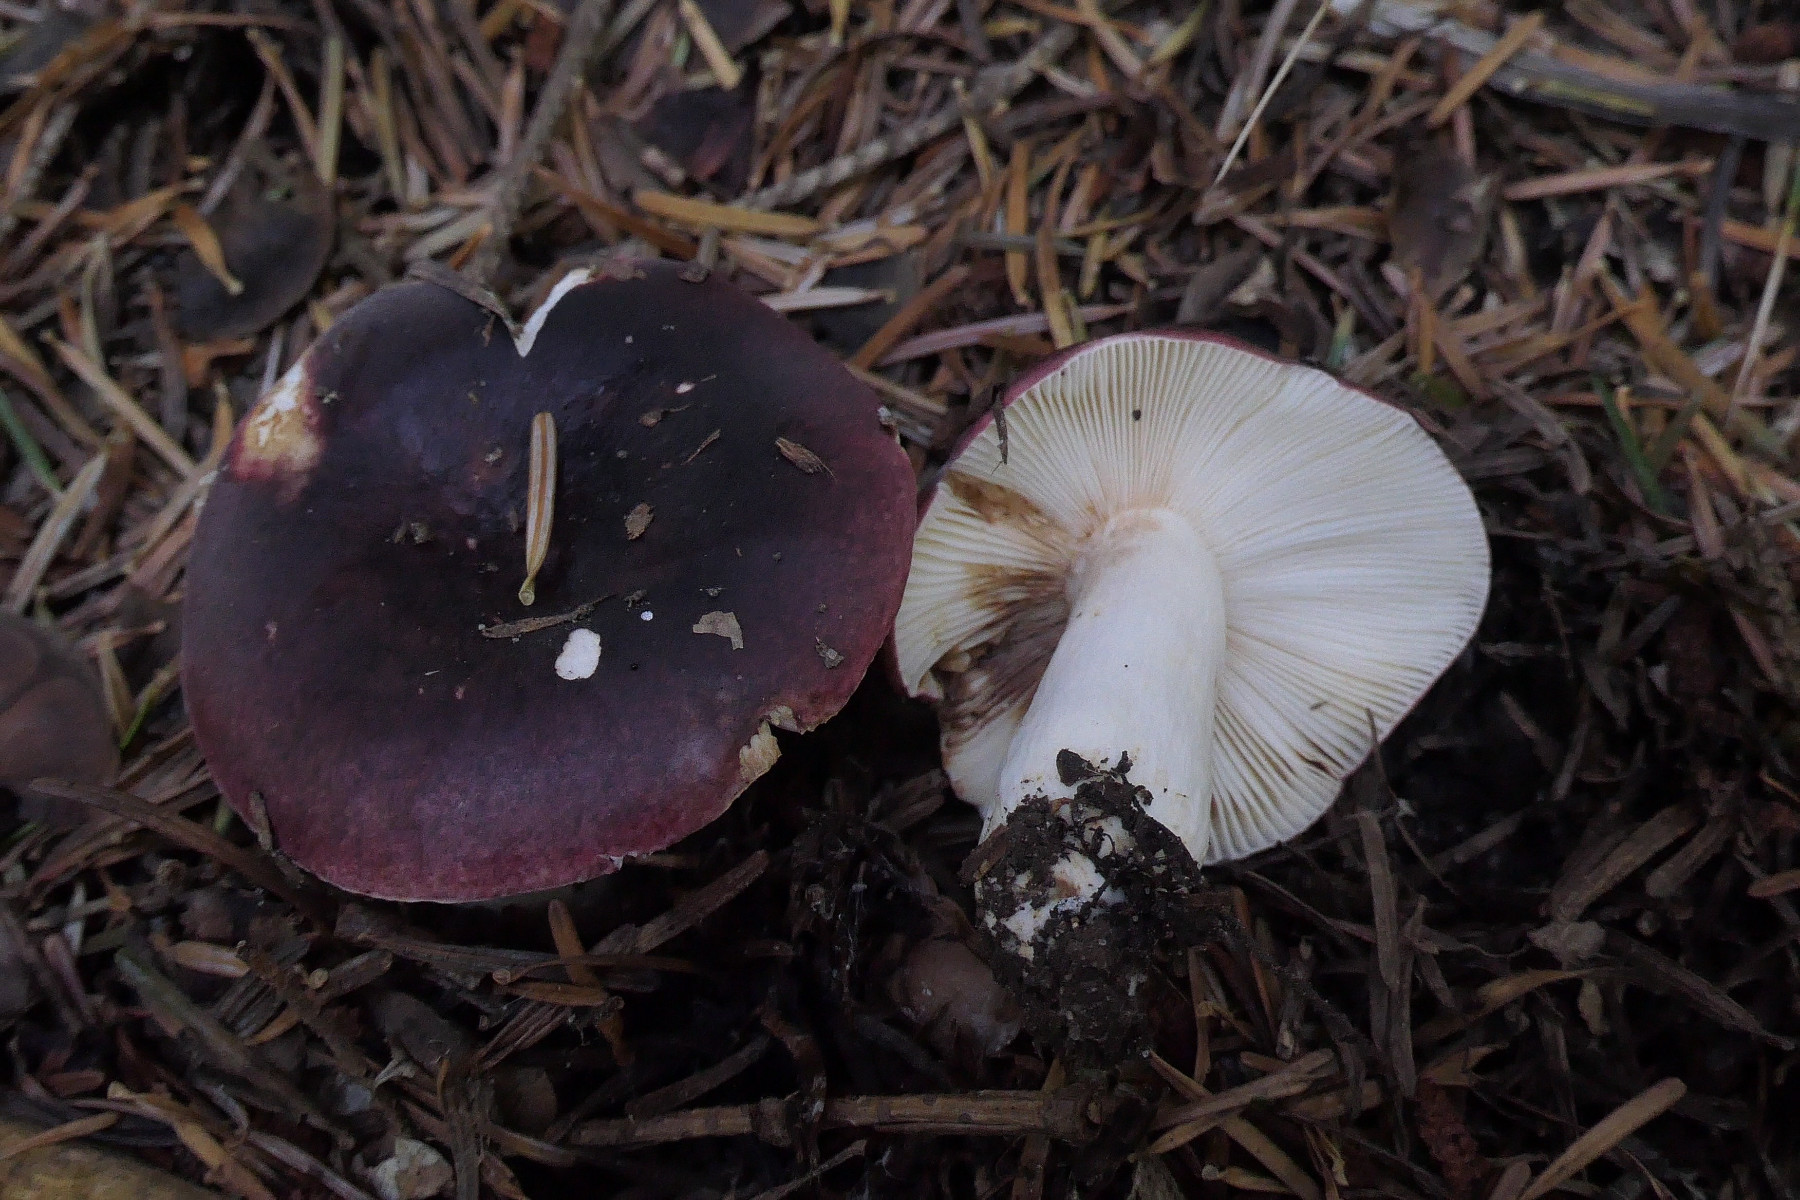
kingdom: Fungi
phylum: Basidiomycota
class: Agaricomycetes
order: Russulales
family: Russulaceae
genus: Russula
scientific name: Russula atropurpurea
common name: purpurbroget skørhat
